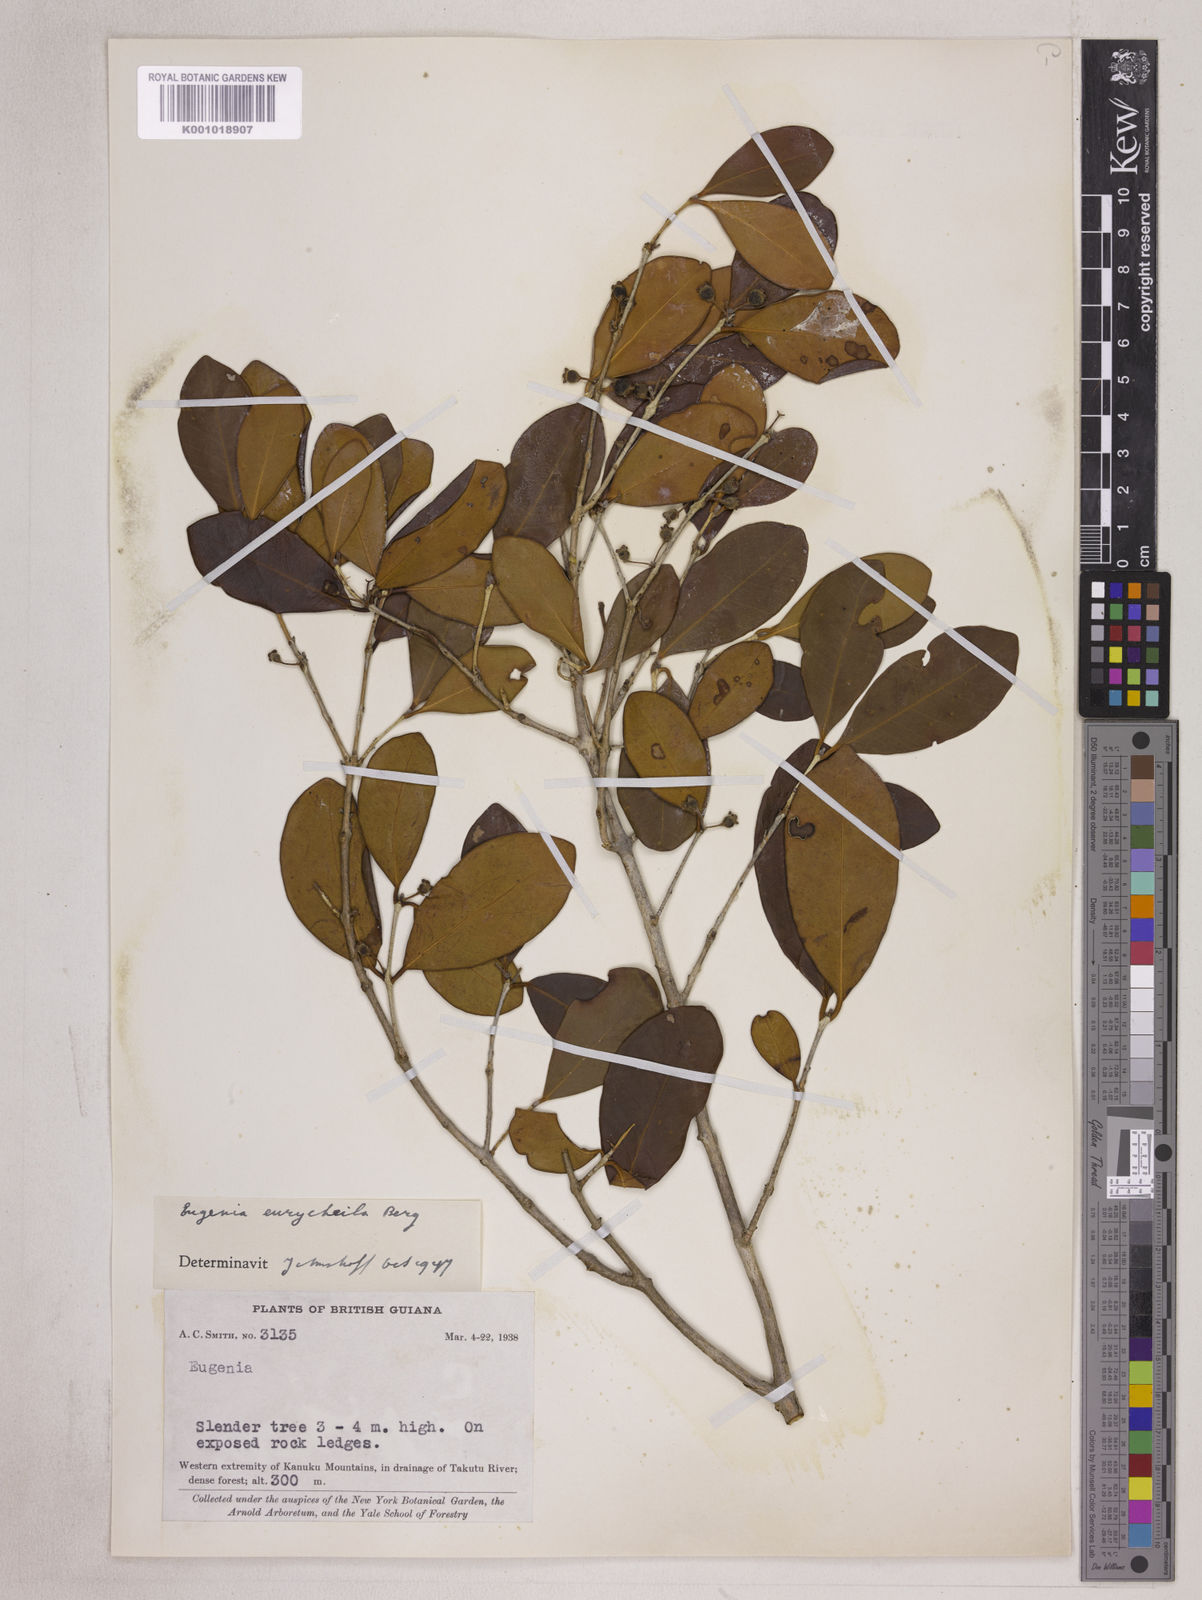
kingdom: Plantae
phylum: Tracheophyta
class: Magnoliopsida
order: Myrtales
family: Myrtaceae
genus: Eugenia
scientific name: Eugenia eurycheila
